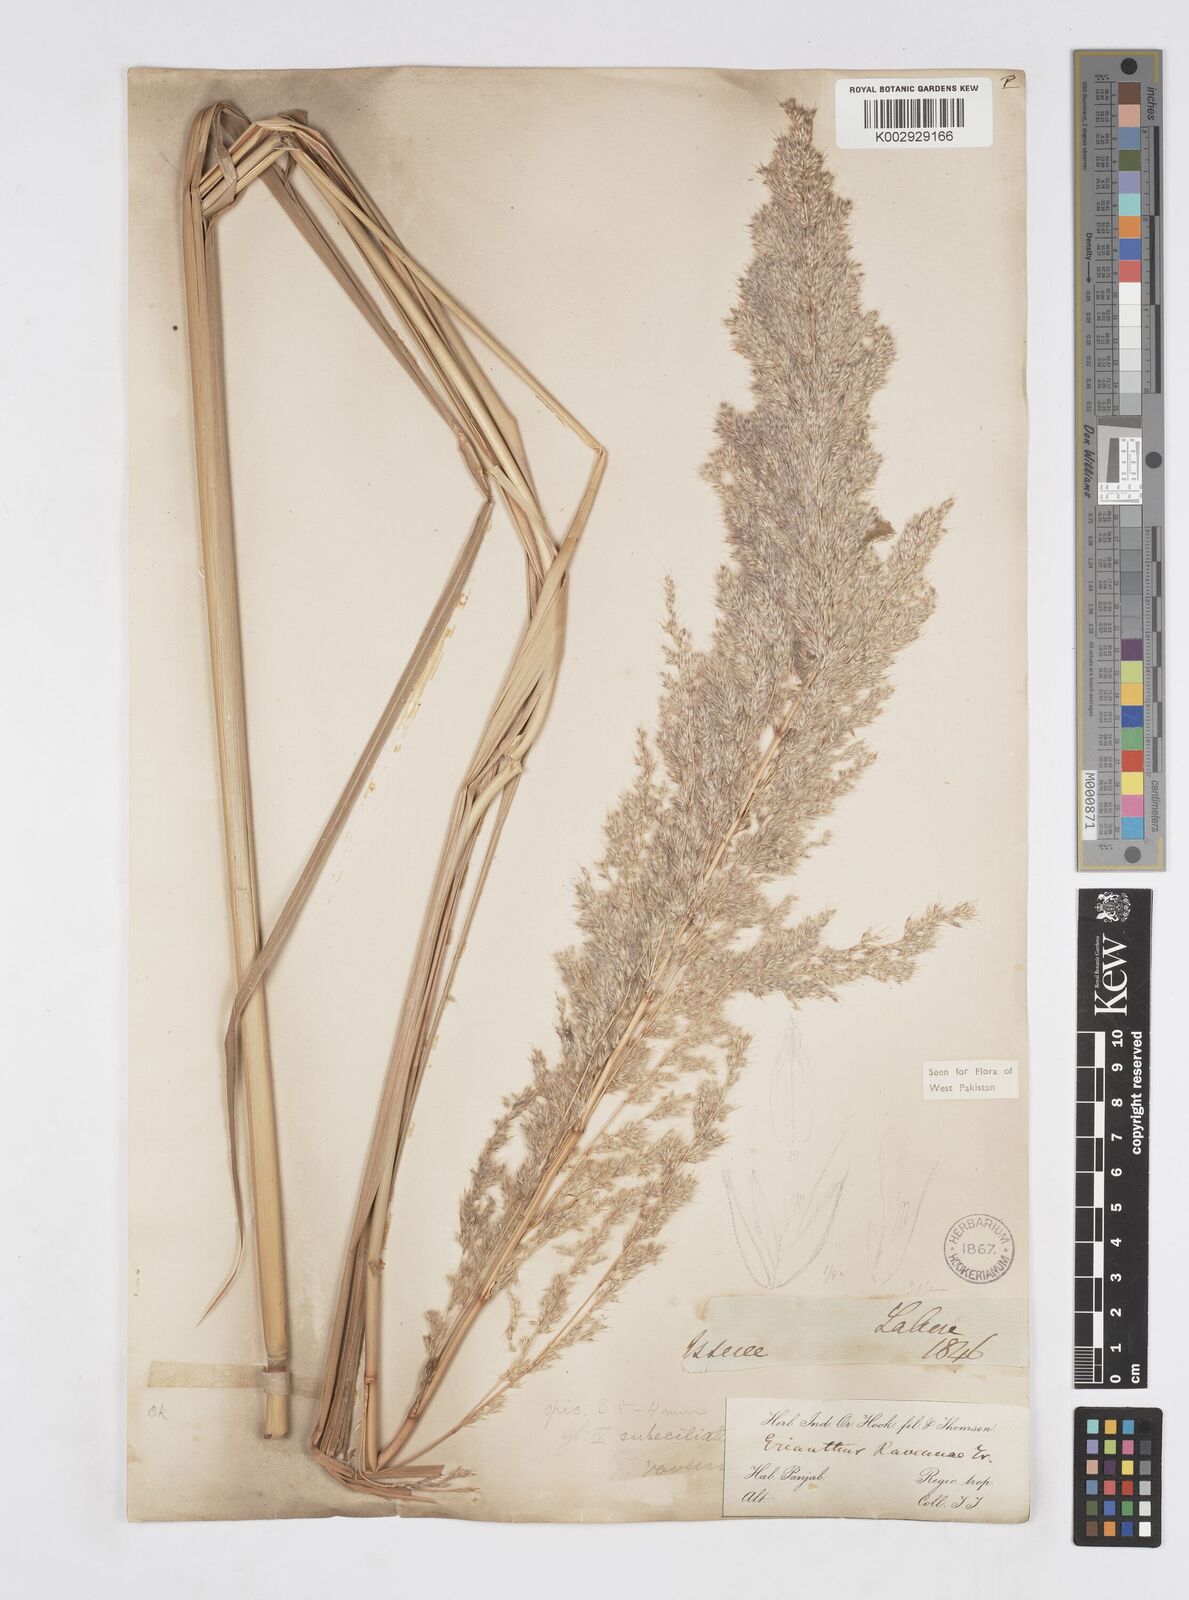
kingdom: Plantae
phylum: Tracheophyta
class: Liliopsida
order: Poales
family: Poaceae
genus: Tripidium
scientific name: Tripidium ravennae
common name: Ravenna grass
